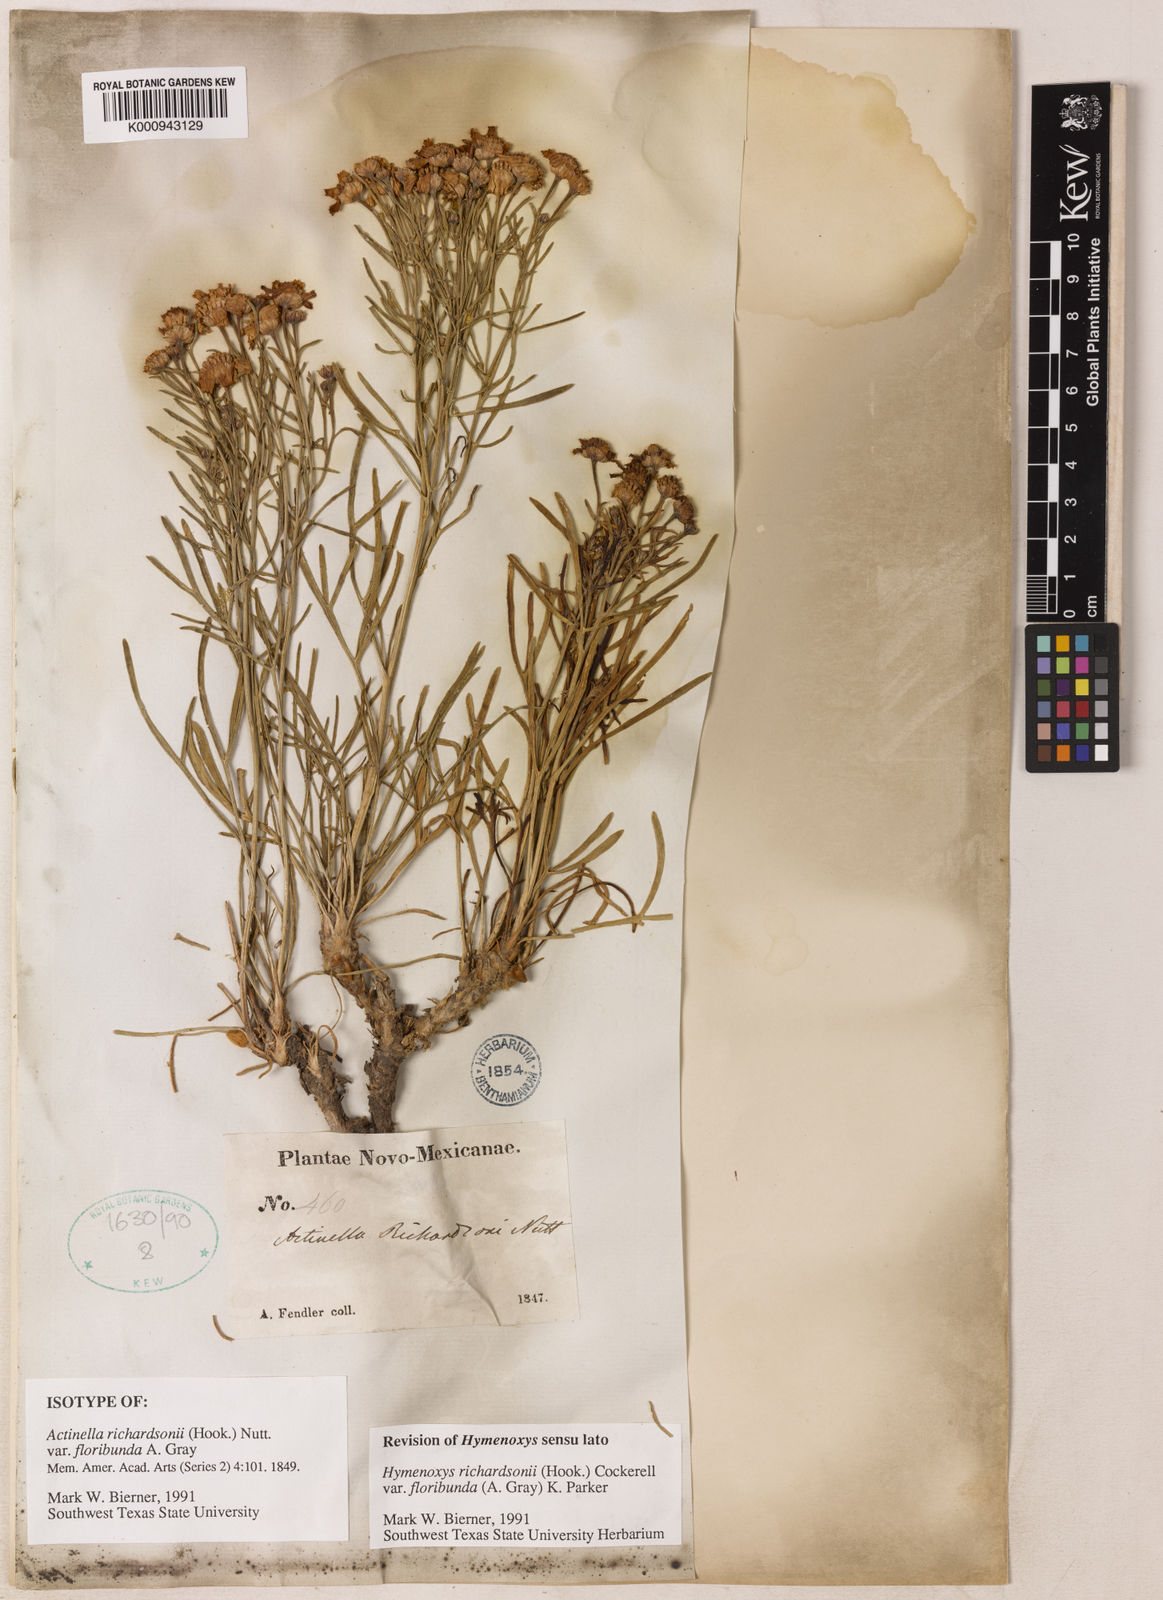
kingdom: Plantae
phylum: Tracheophyta
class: Magnoliopsida
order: Asterales
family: Asteraceae
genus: Hymenoxys
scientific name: Hymenoxys richardsonii
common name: Pingue rubberweed
